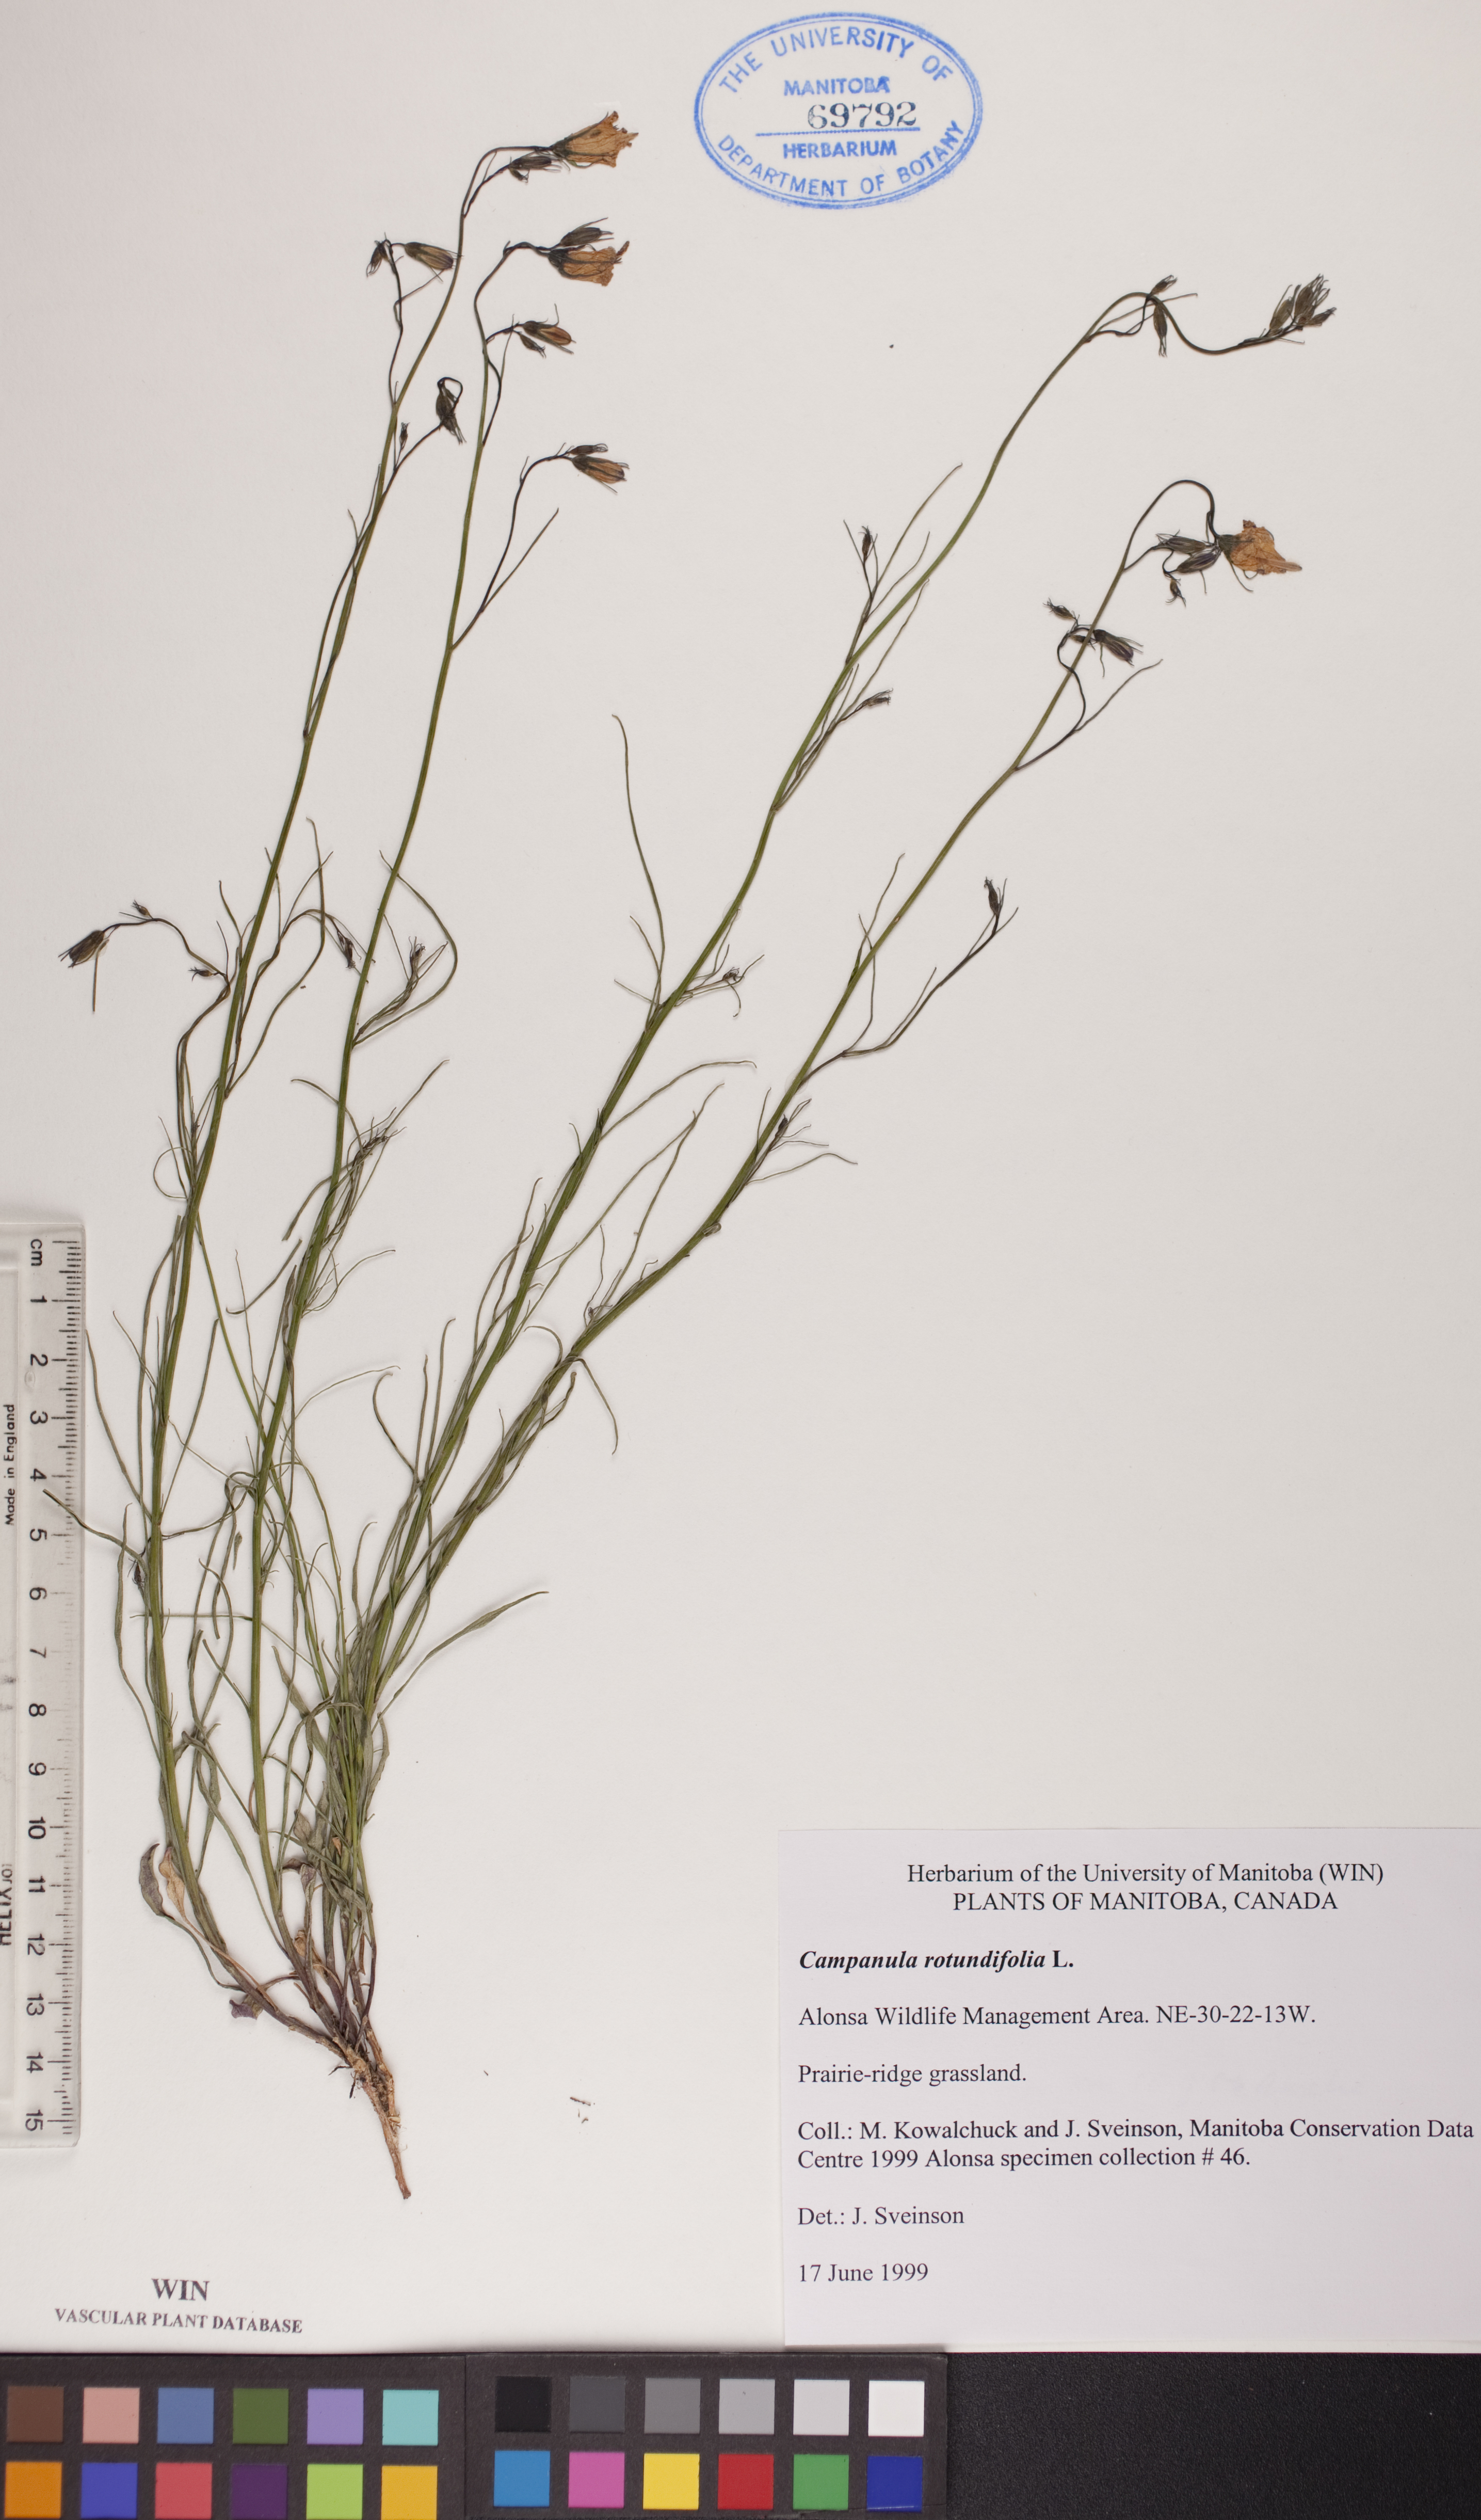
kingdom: Plantae
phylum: Tracheophyta
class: Magnoliopsida
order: Asterales
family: Campanulaceae
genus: Campanula
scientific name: Campanula rotundifolia
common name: Harebell
